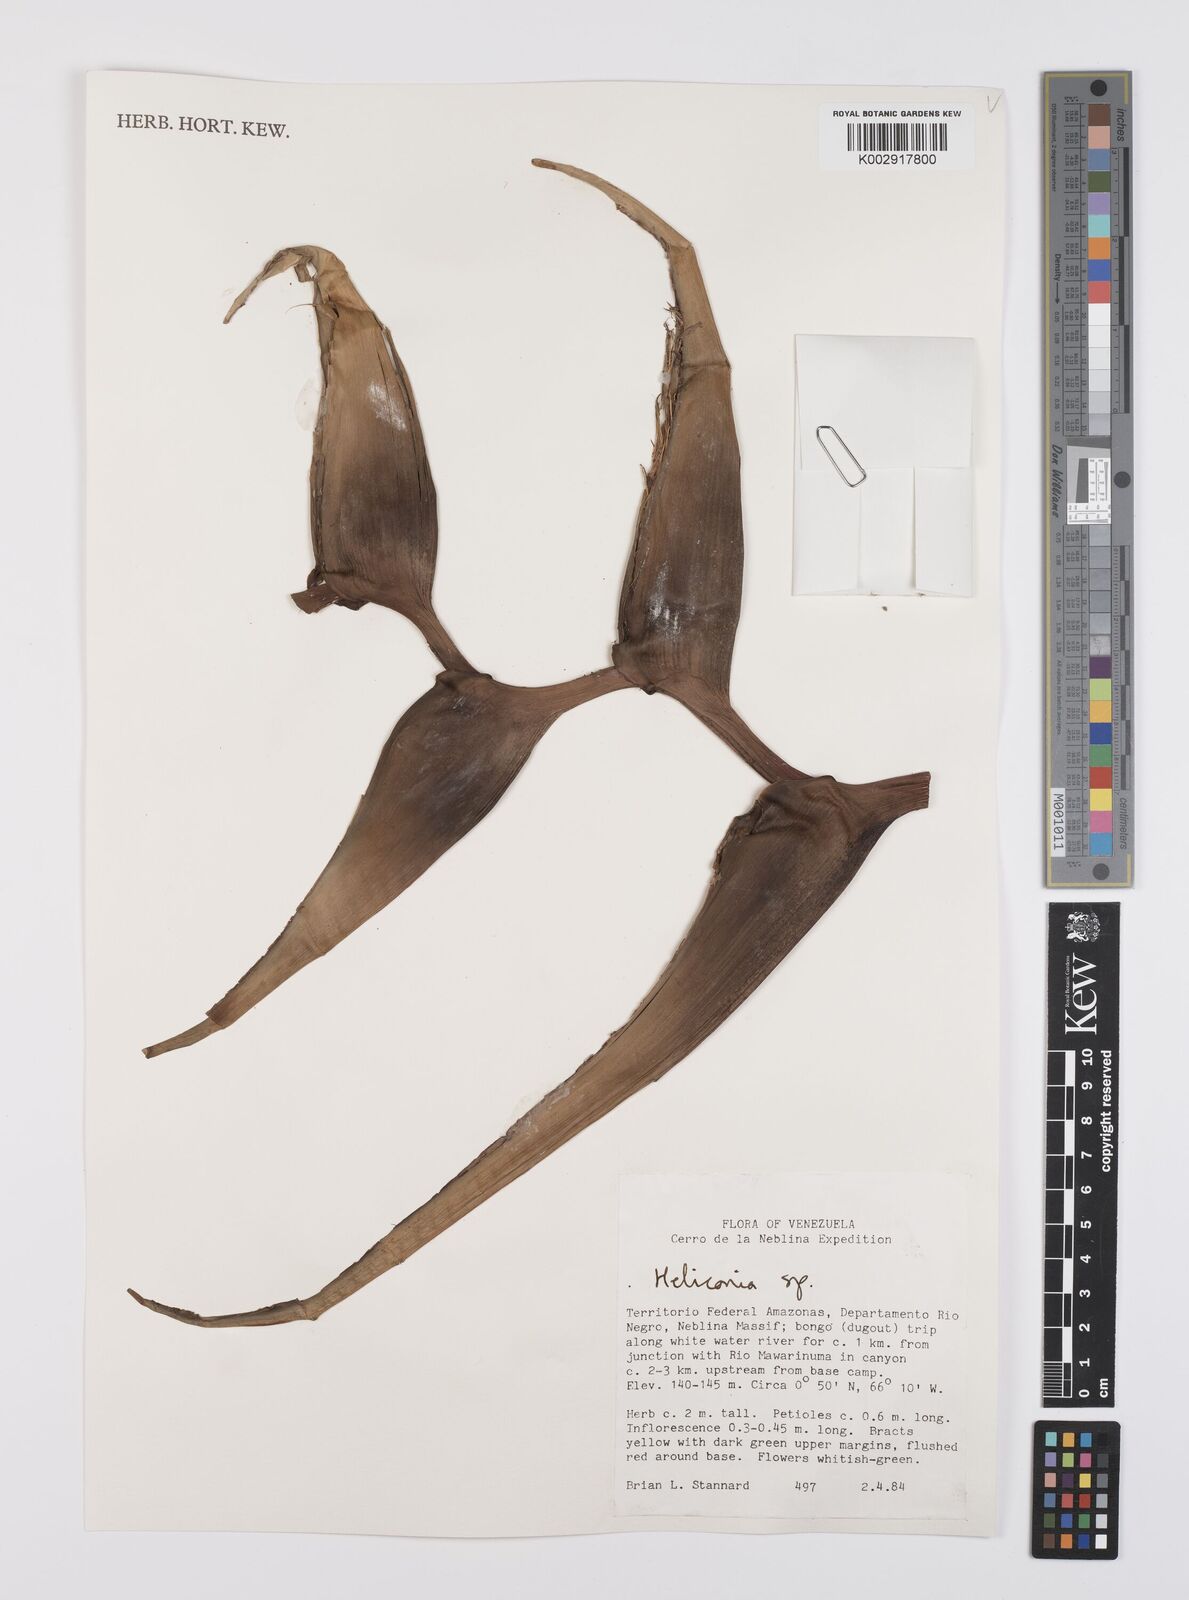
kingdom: Plantae
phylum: Tracheophyta
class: Liliopsida
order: Zingiberales
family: Heliconiaceae
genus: Heliconia
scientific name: Heliconia
